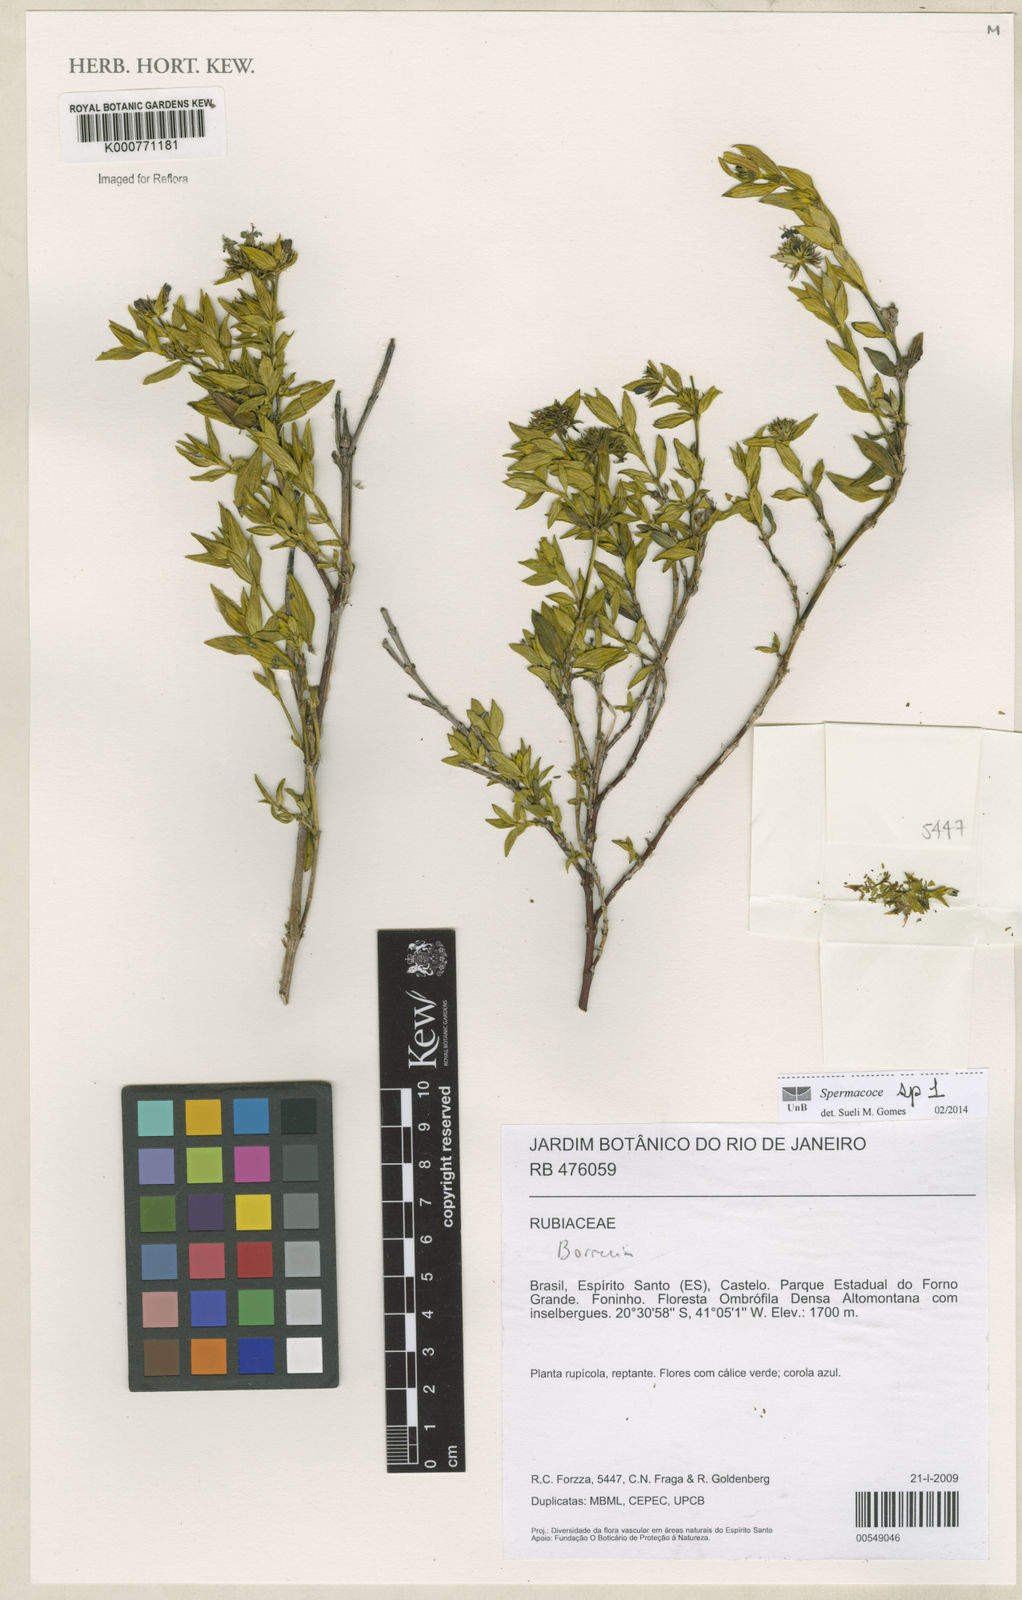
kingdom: Plantae
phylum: Tracheophyta
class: Magnoliopsida
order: Gentianales
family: Rubiaceae
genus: Spermacoce
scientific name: Spermacoce
